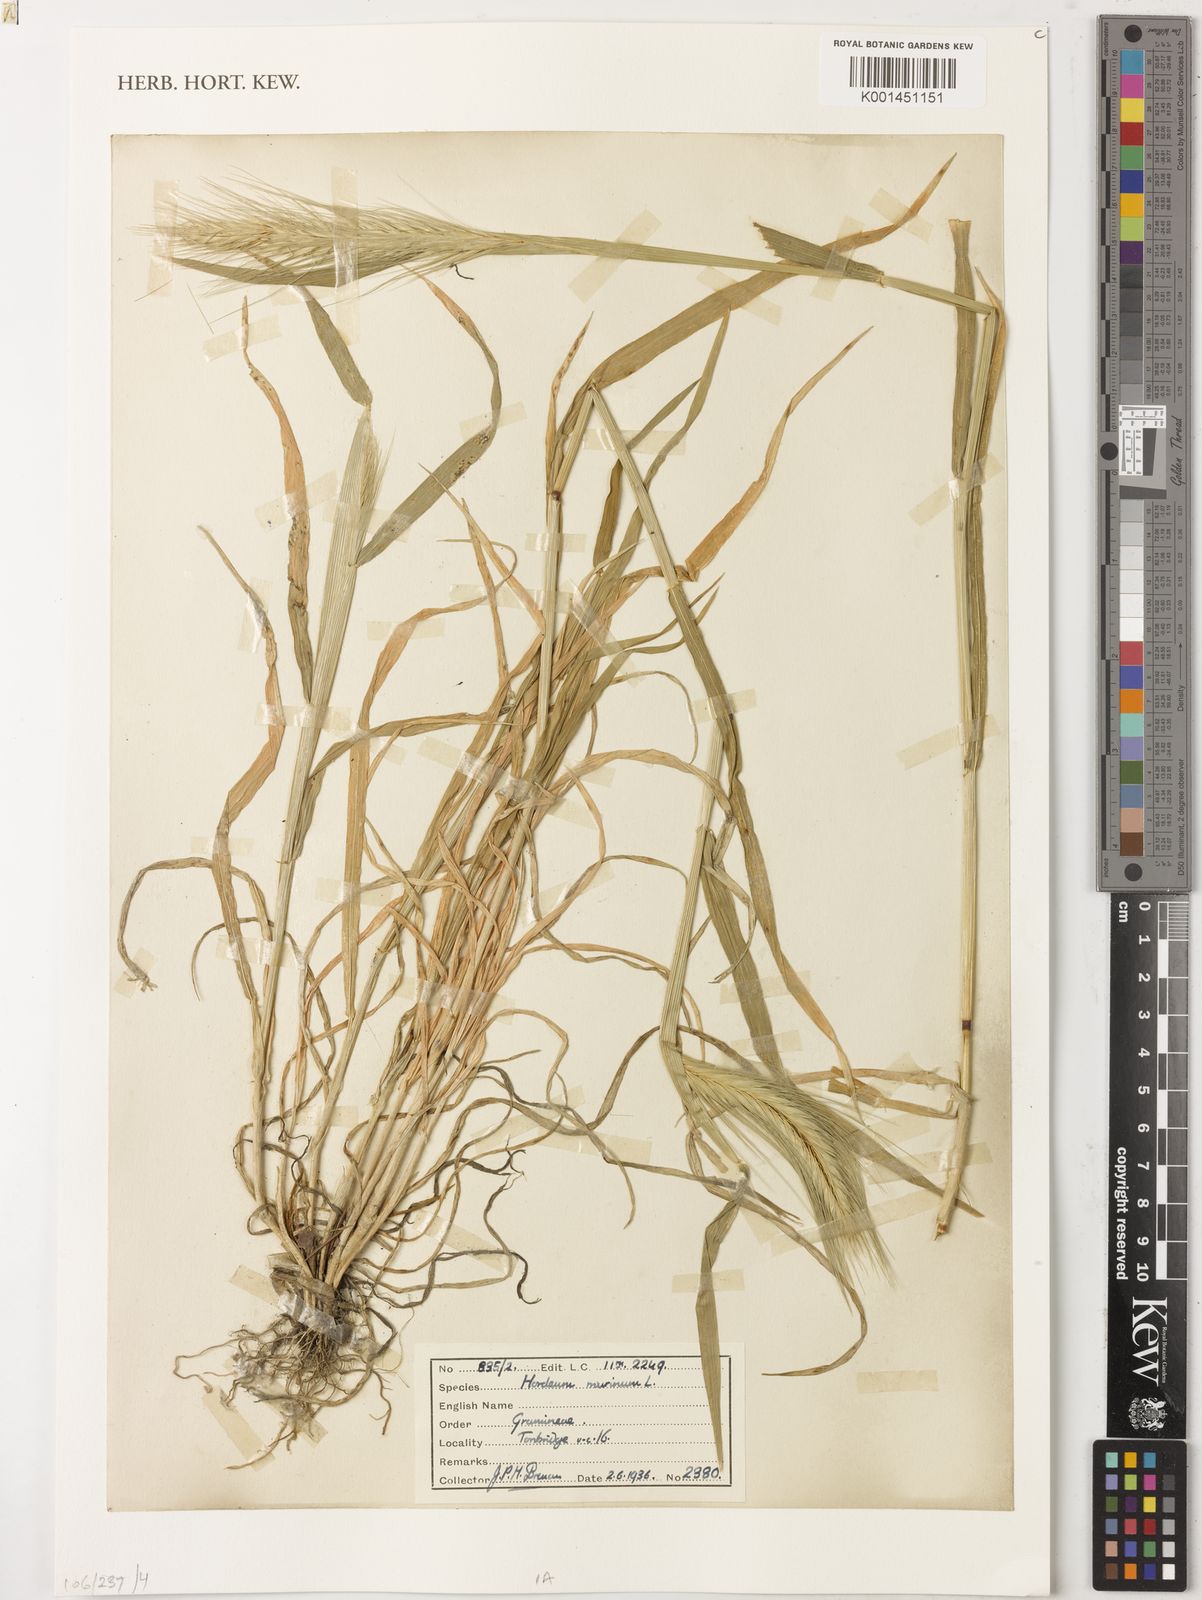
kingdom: Plantae
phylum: Tracheophyta
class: Liliopsida
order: Poales
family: Poaceae
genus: Hordeum
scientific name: Hordeum murinum
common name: Wall barley
